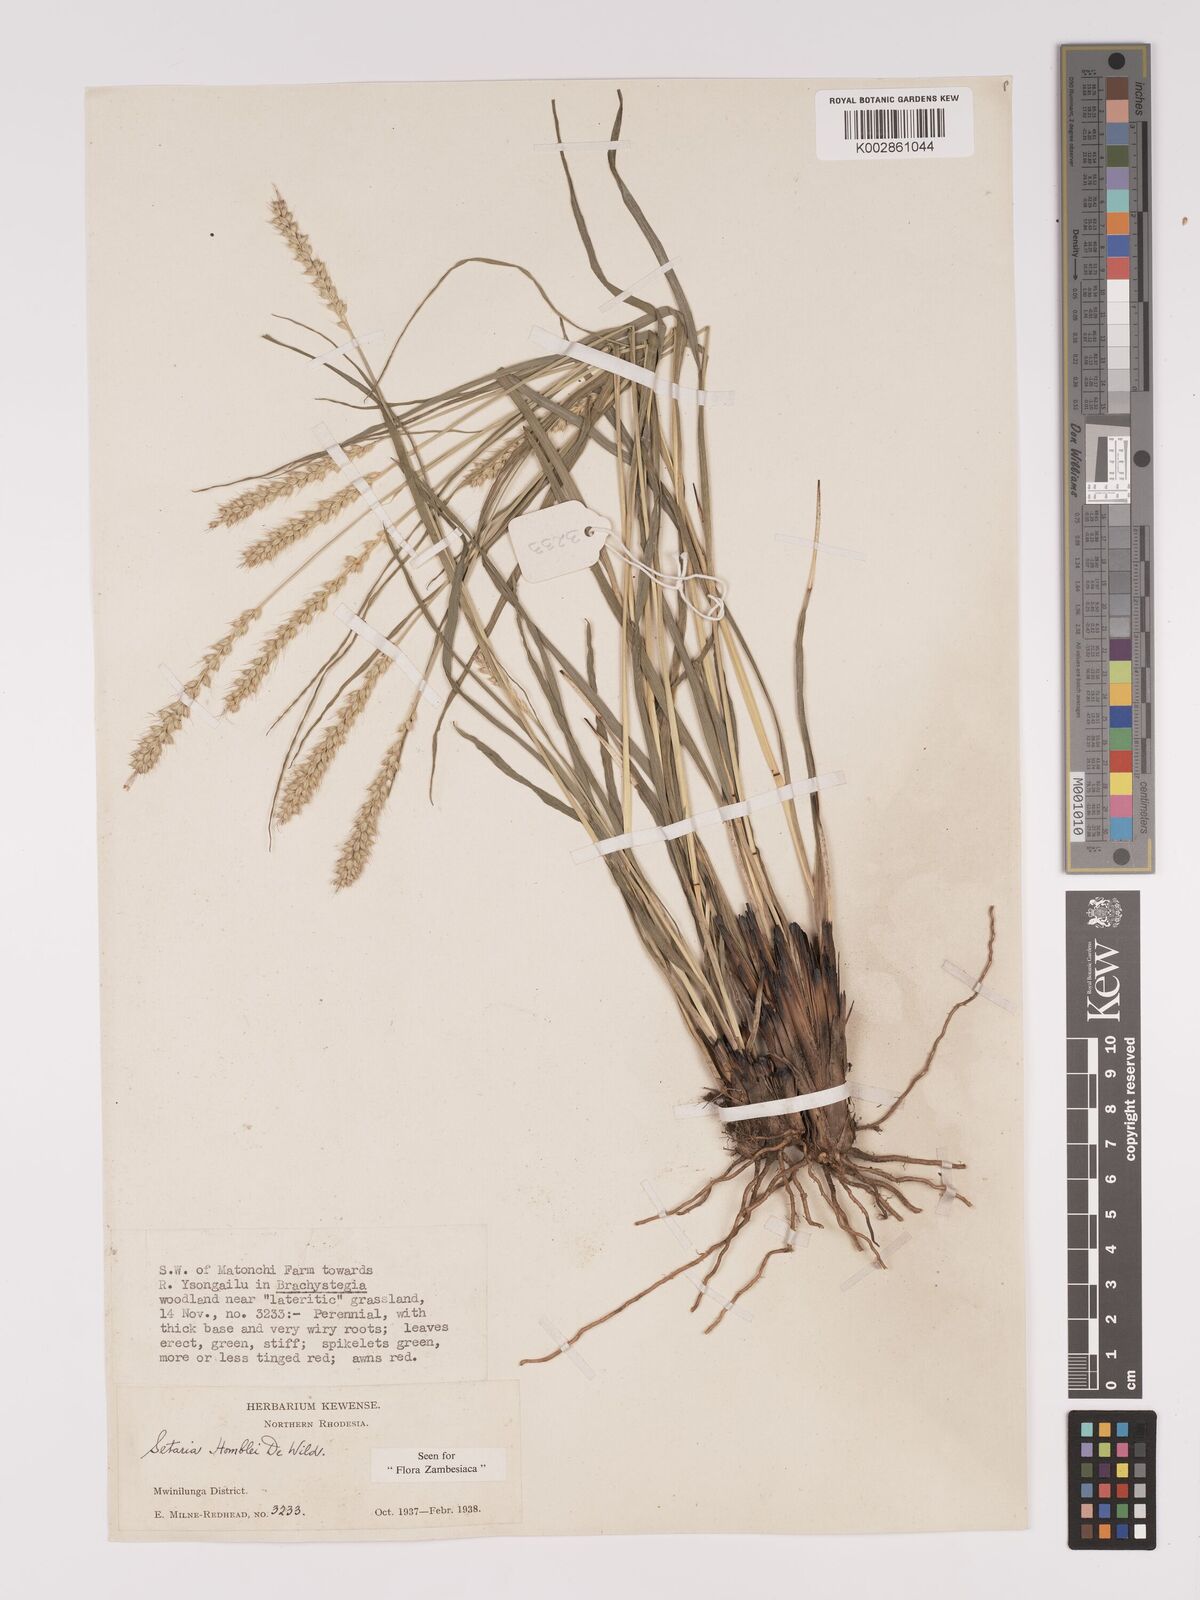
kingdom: Plantae
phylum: Tracheophyta
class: Liliopsida
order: Poales
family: Poaceae
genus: Setaria
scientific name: Setaria sphacelata
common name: African bristlegrass
